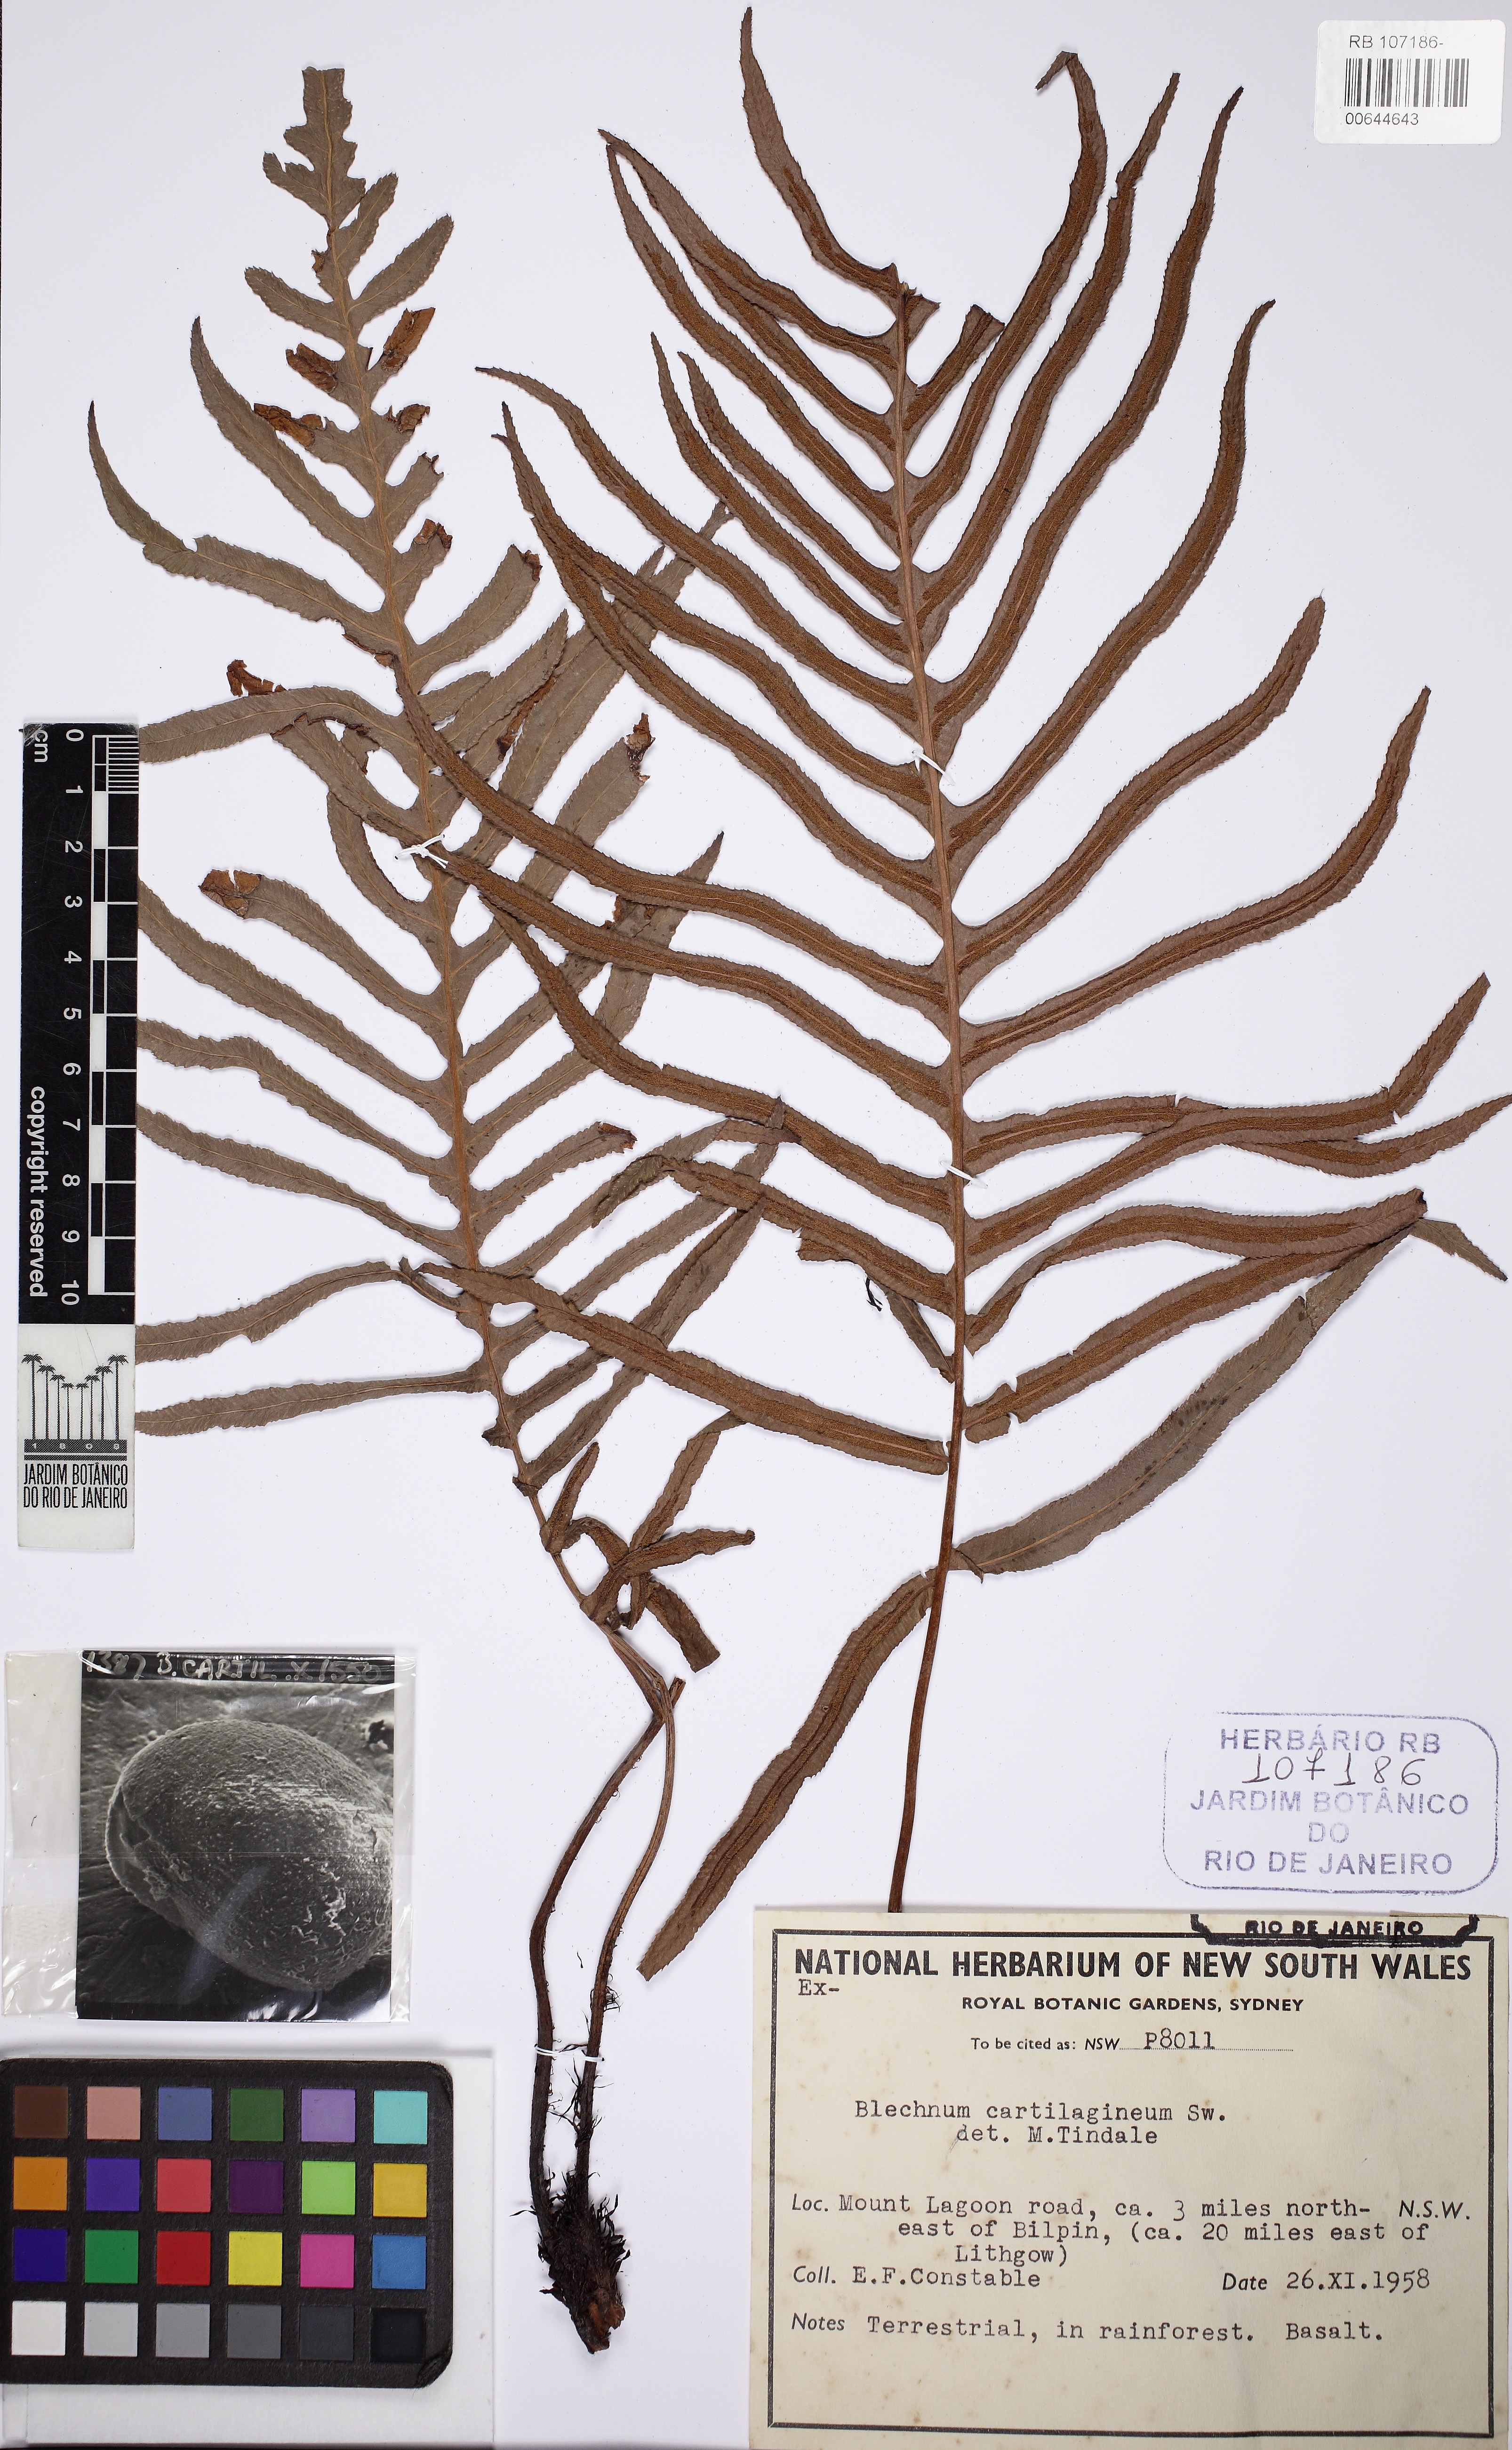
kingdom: Plantae
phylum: Tracheophyta
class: Polypodiopsida
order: Polypodiales
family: Blechnaceae
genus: Oceaniopteris
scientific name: Oceaniopteris cartilaginea
